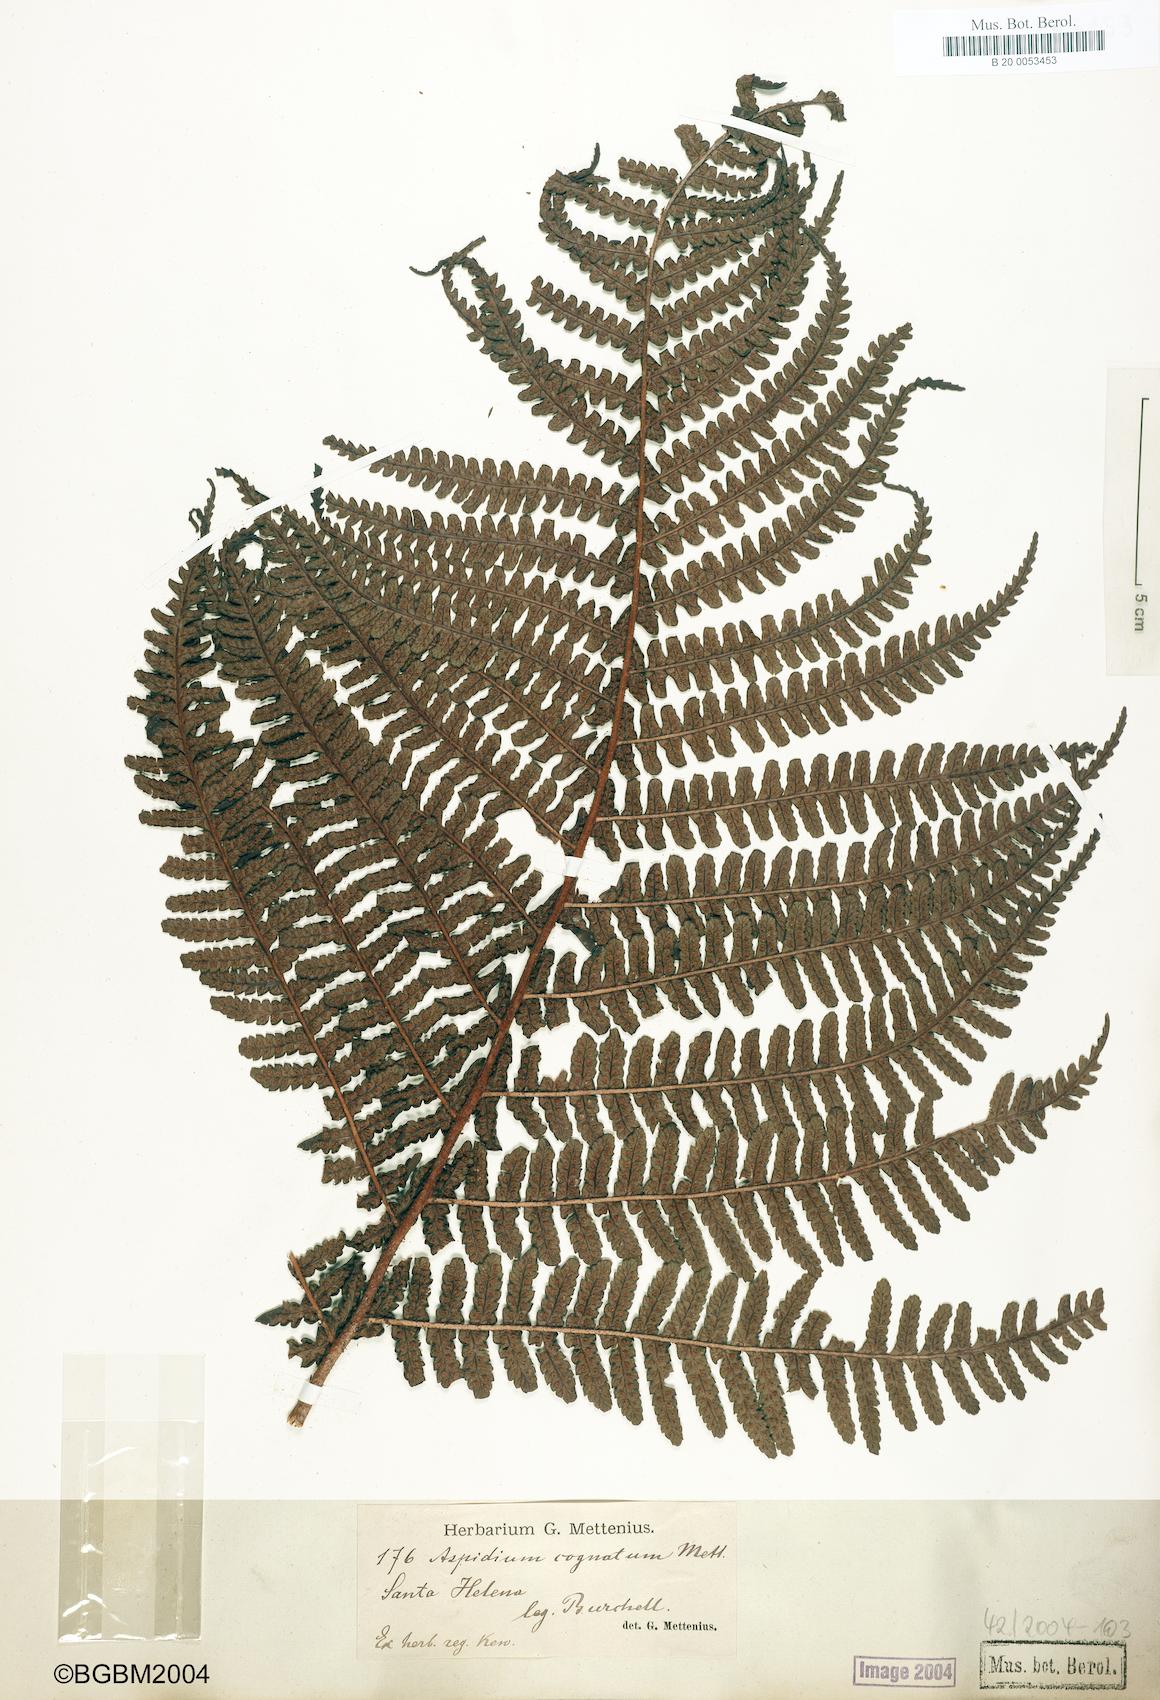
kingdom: Plantae
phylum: Tracheophyta
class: Polypodiopsida
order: Polypodiales
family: Dryopteridaceae
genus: Dryopteris
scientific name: Dryopteris cognata
